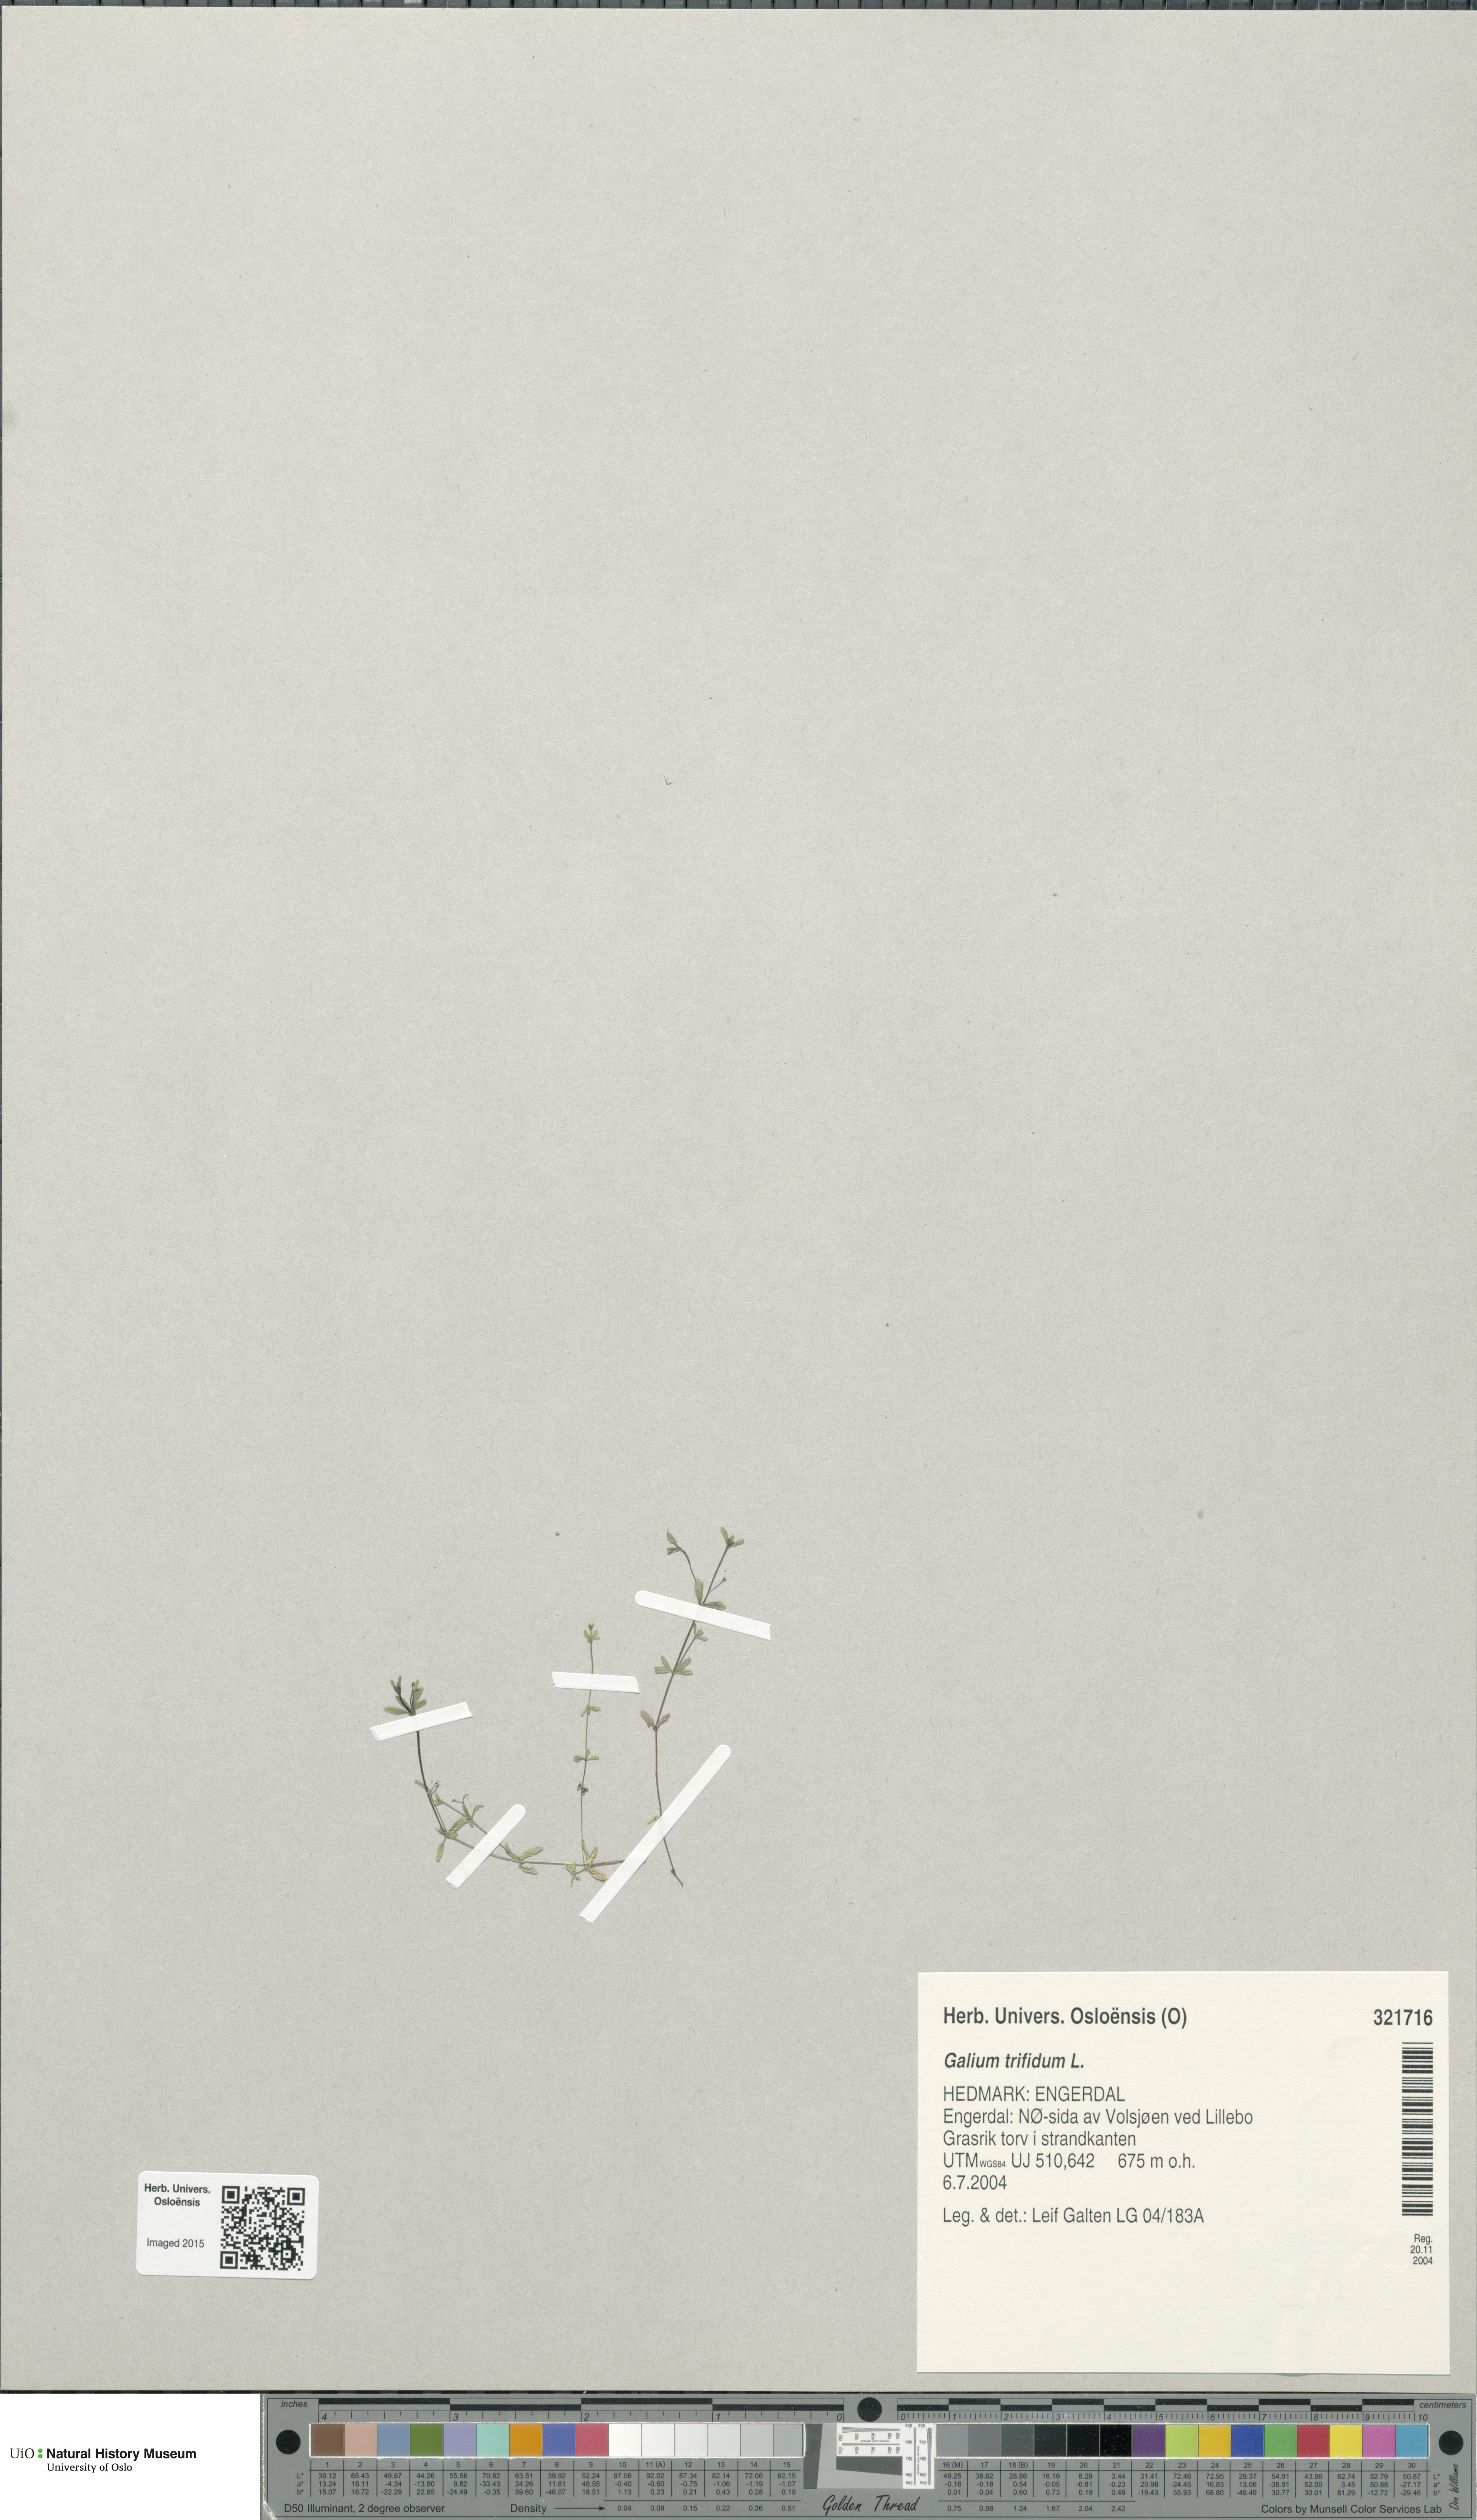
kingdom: Plantae
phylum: Tracheophyta
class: Magnoliopsida
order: Gentianales
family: Rubiaceae
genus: Galium
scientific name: Galium trifidum
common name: Small bedstraw
